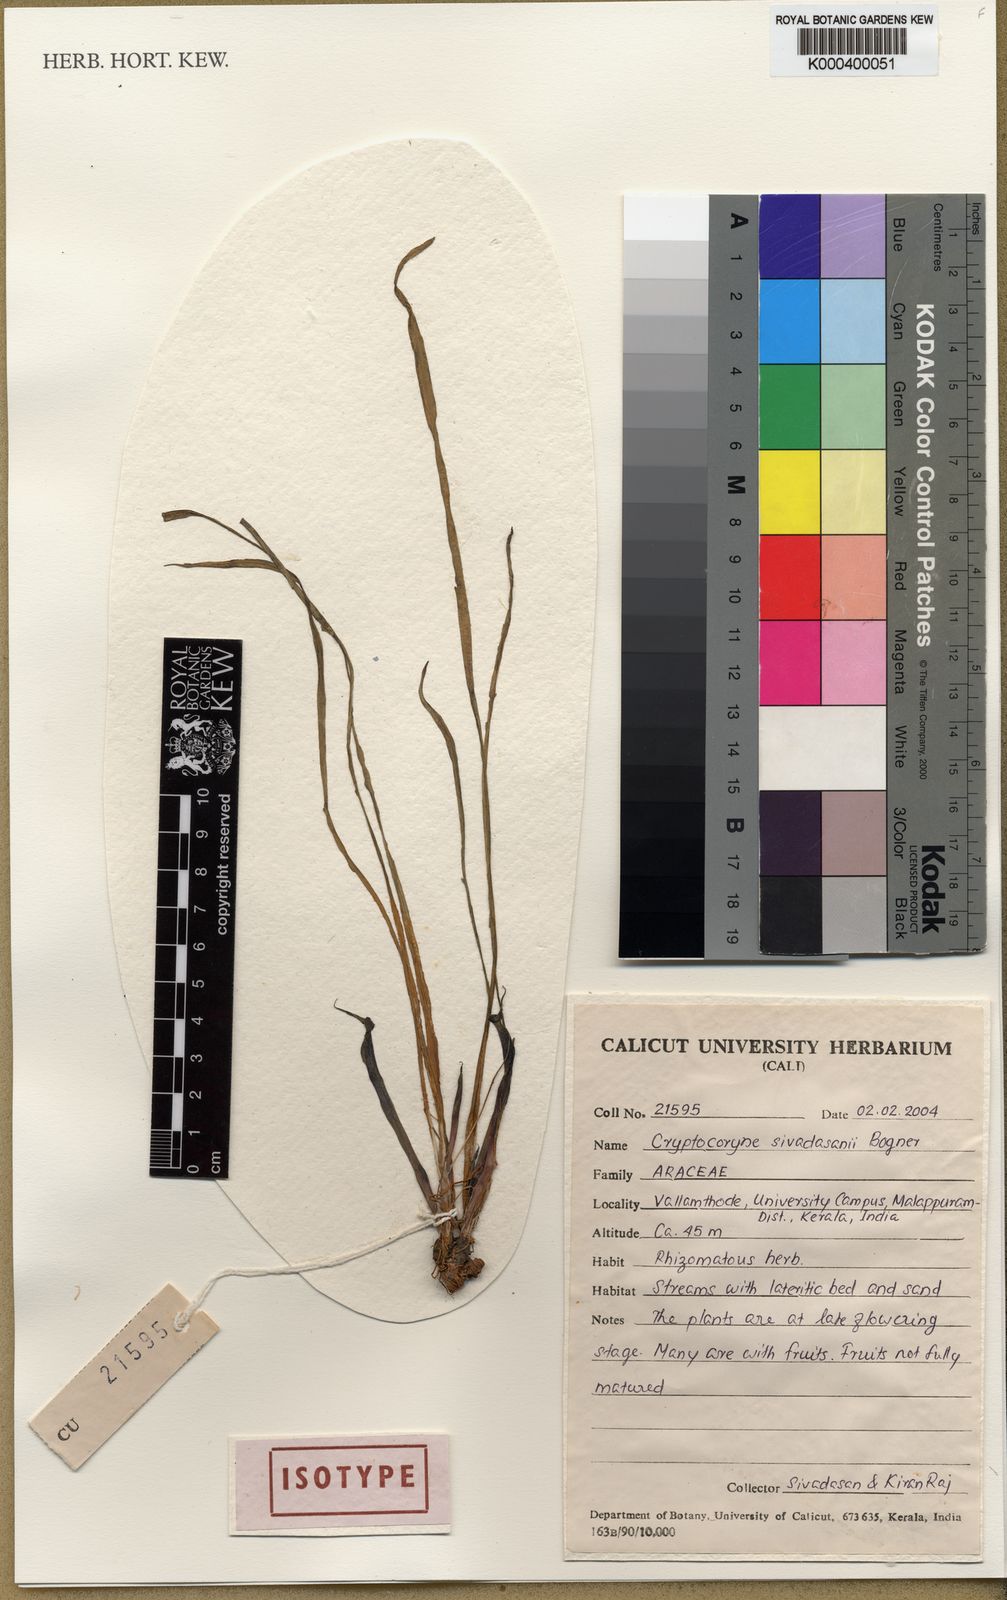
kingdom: Plantae
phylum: Tracheophyta
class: Liliopsida
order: Alismatales
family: Araceae
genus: Cryptocoryne
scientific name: Cryptocoryne sivadasanii
